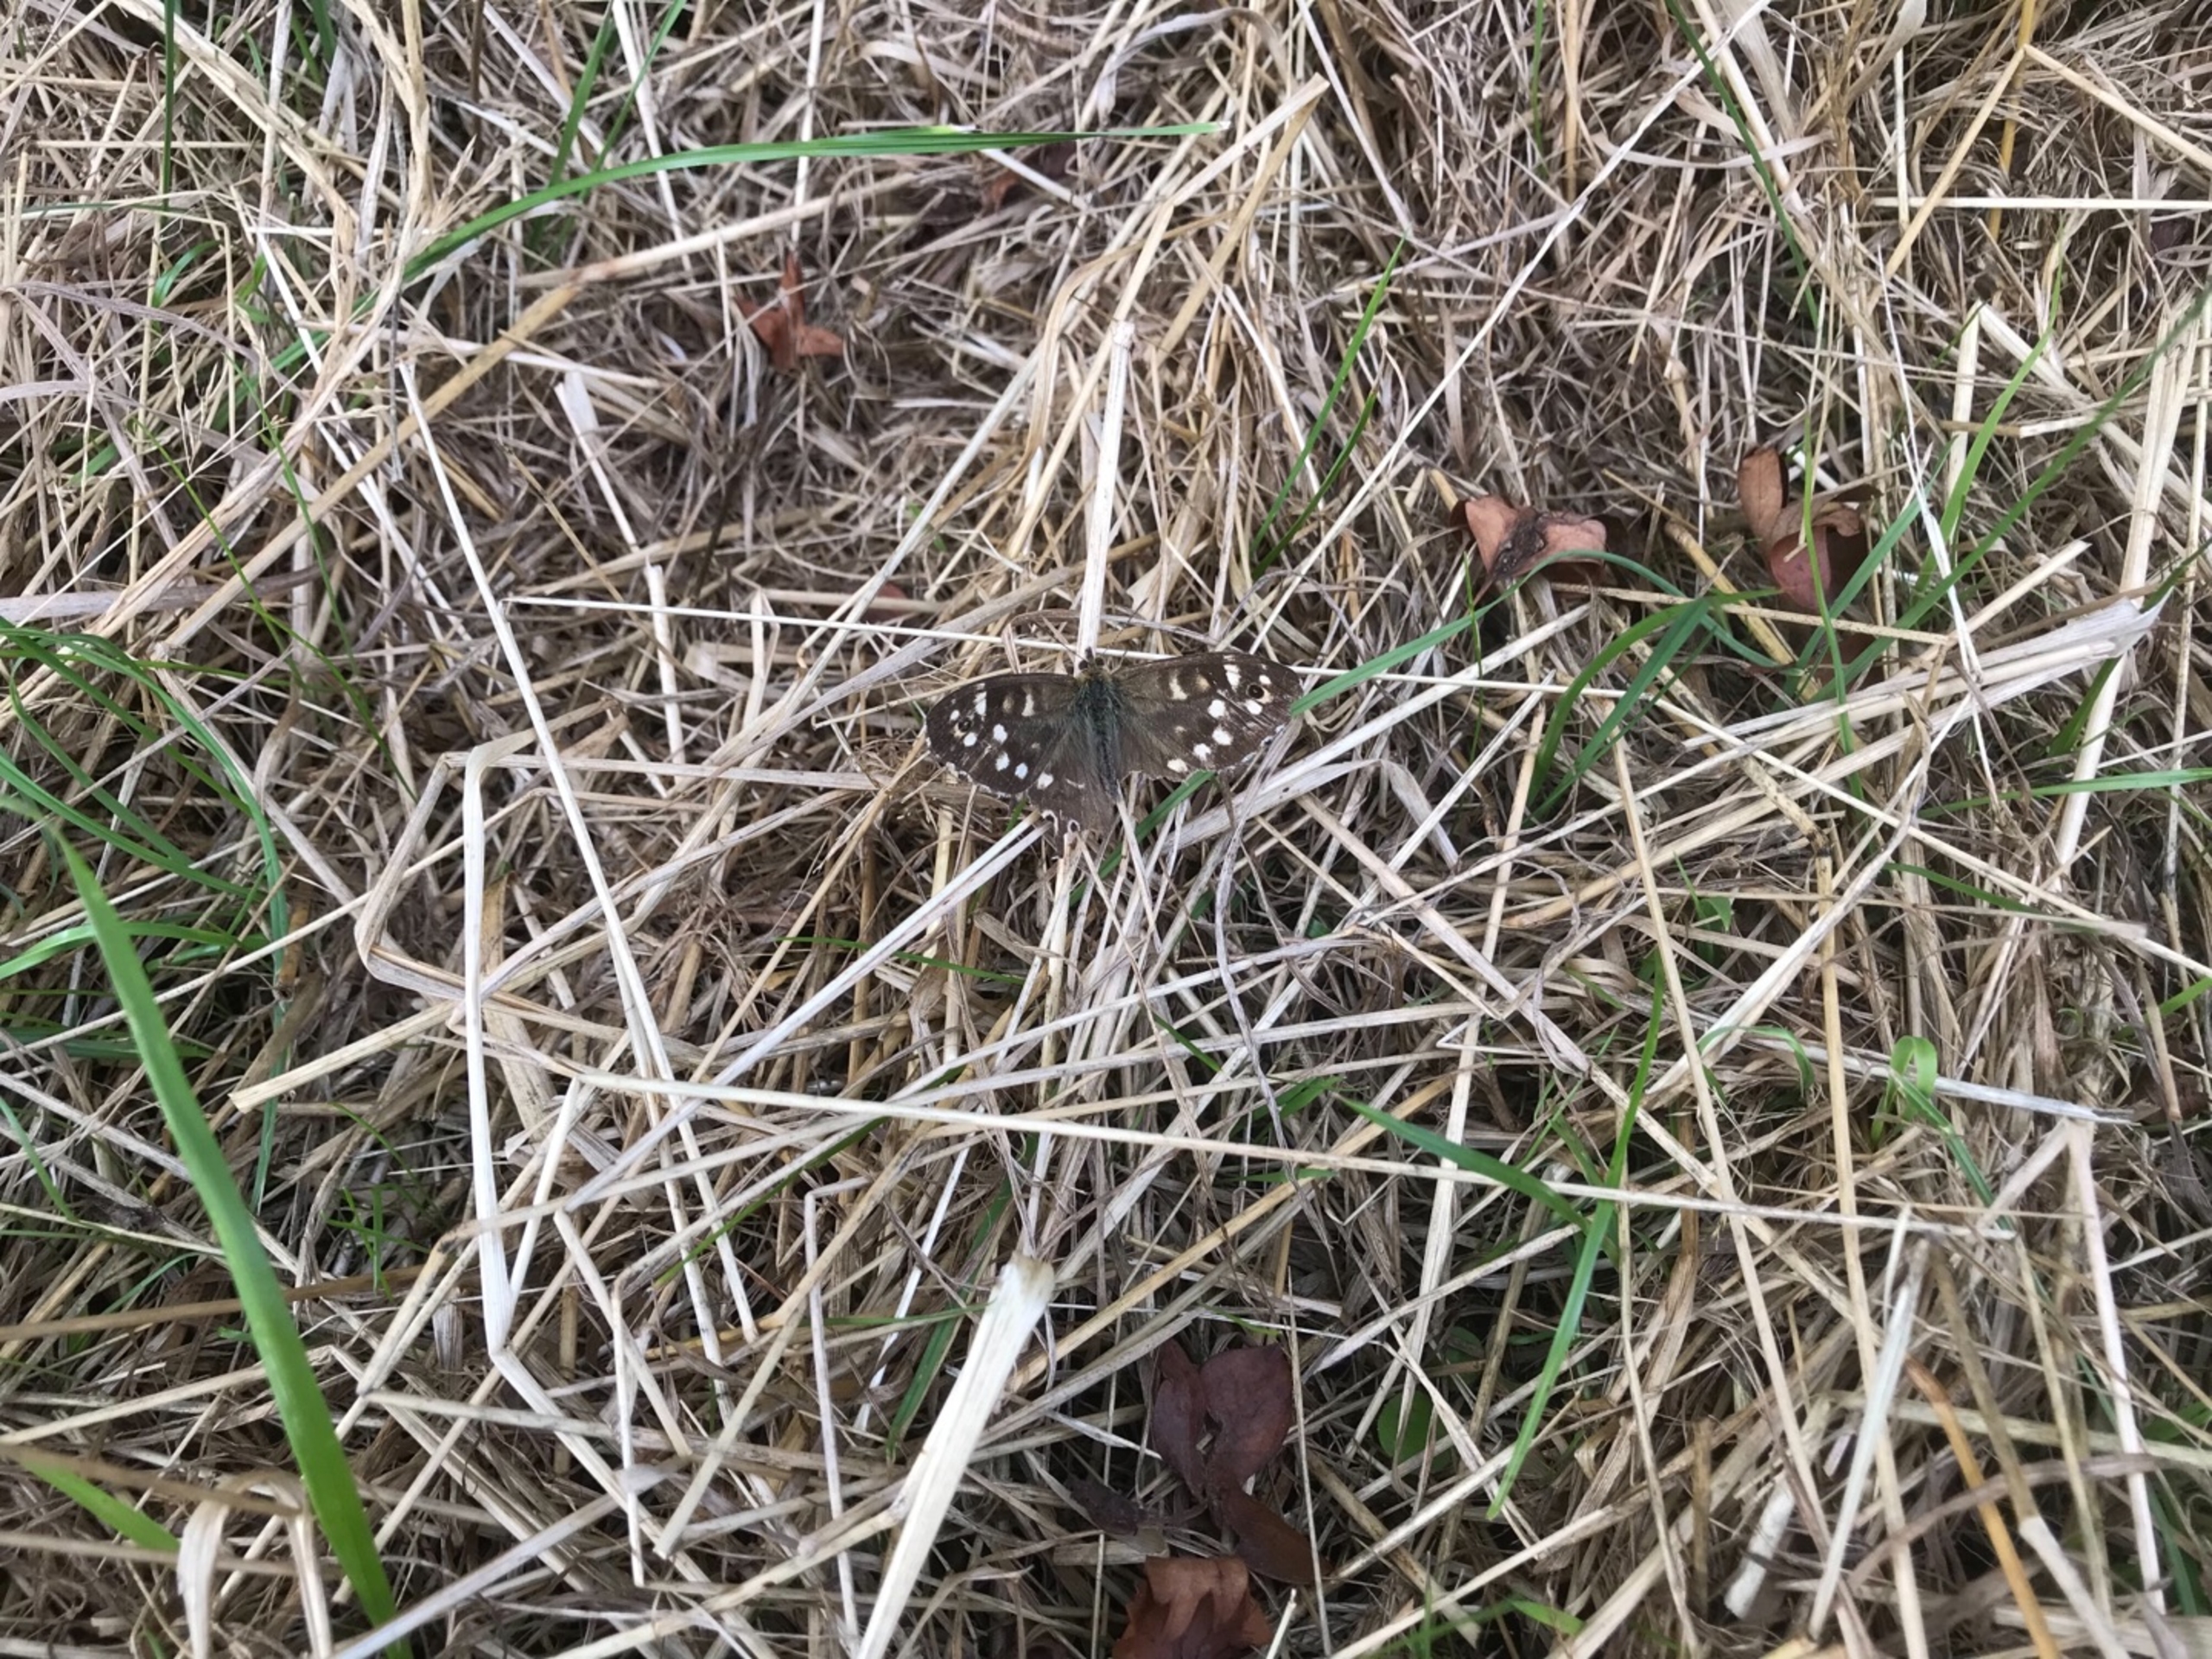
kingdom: Animalia
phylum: Arthropoda
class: Insecta
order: Lepidoptera
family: Nymphalidae
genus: Pararge
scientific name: Pararge aegeria
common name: Skovrandøje
